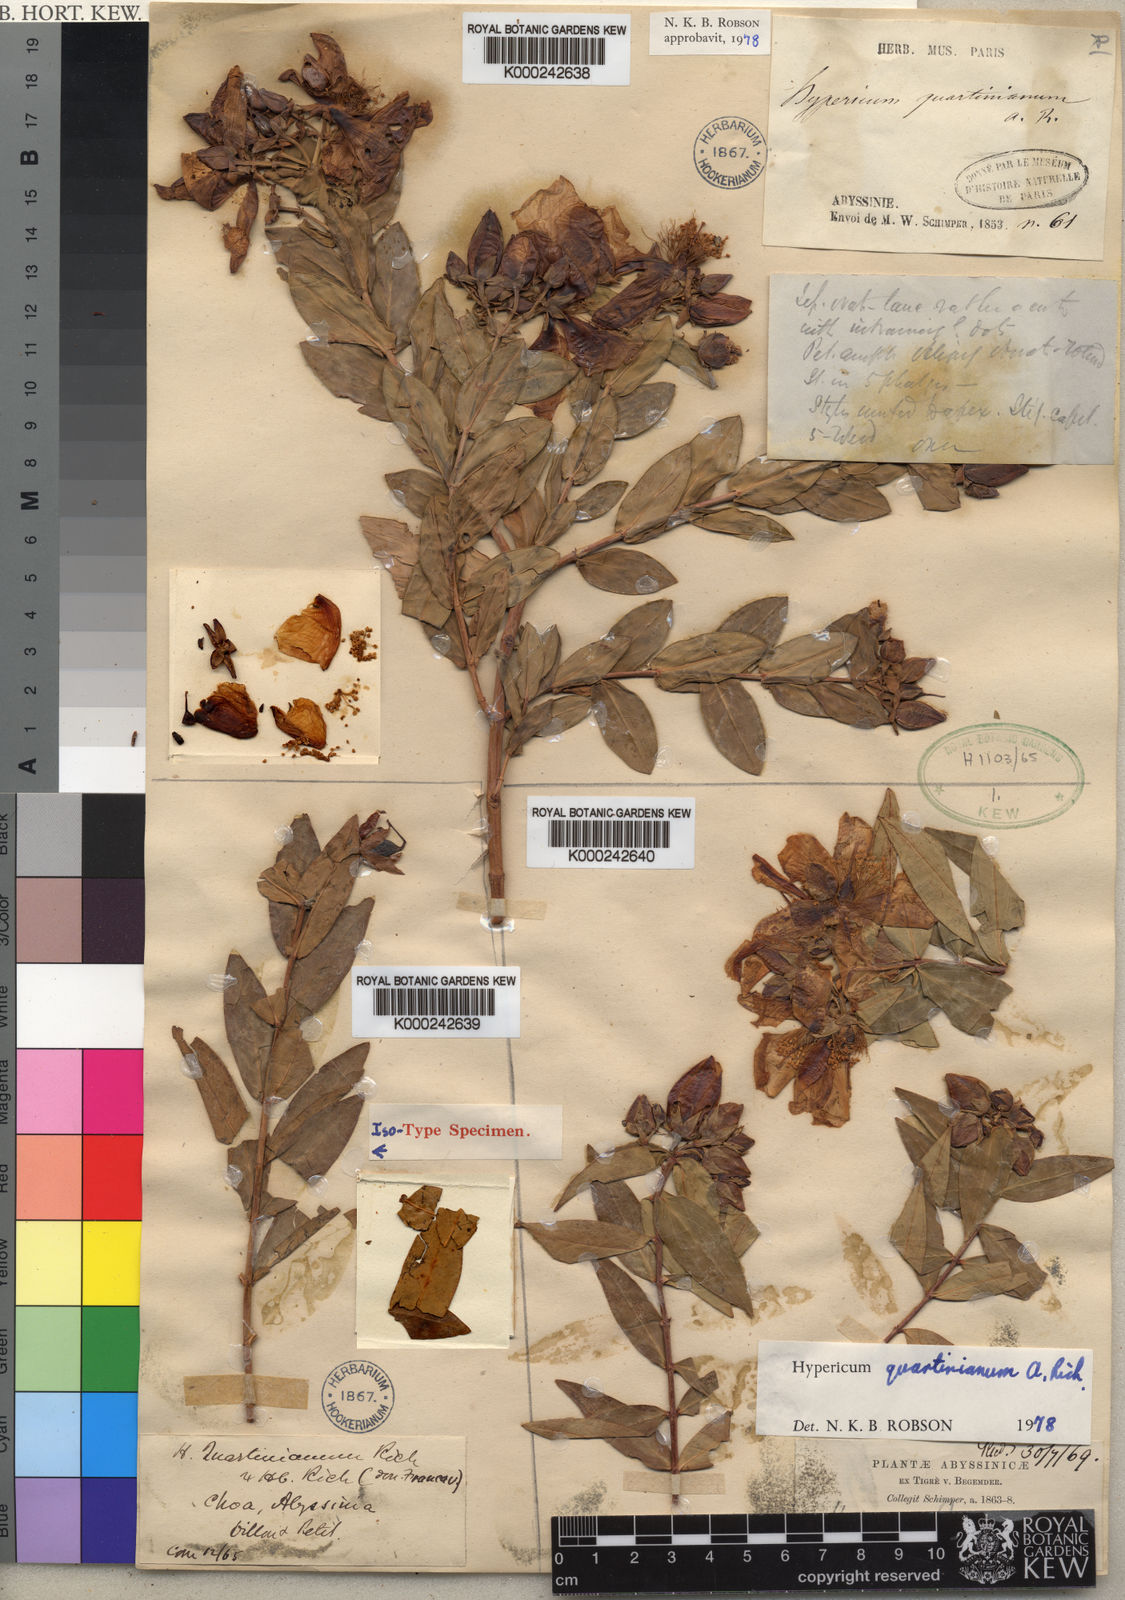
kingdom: Plantae
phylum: Tracheophyta
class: Magnoliopsida
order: Malpighiales
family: Hypericaceae
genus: Hypericum
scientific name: Hypericum quartinianum
